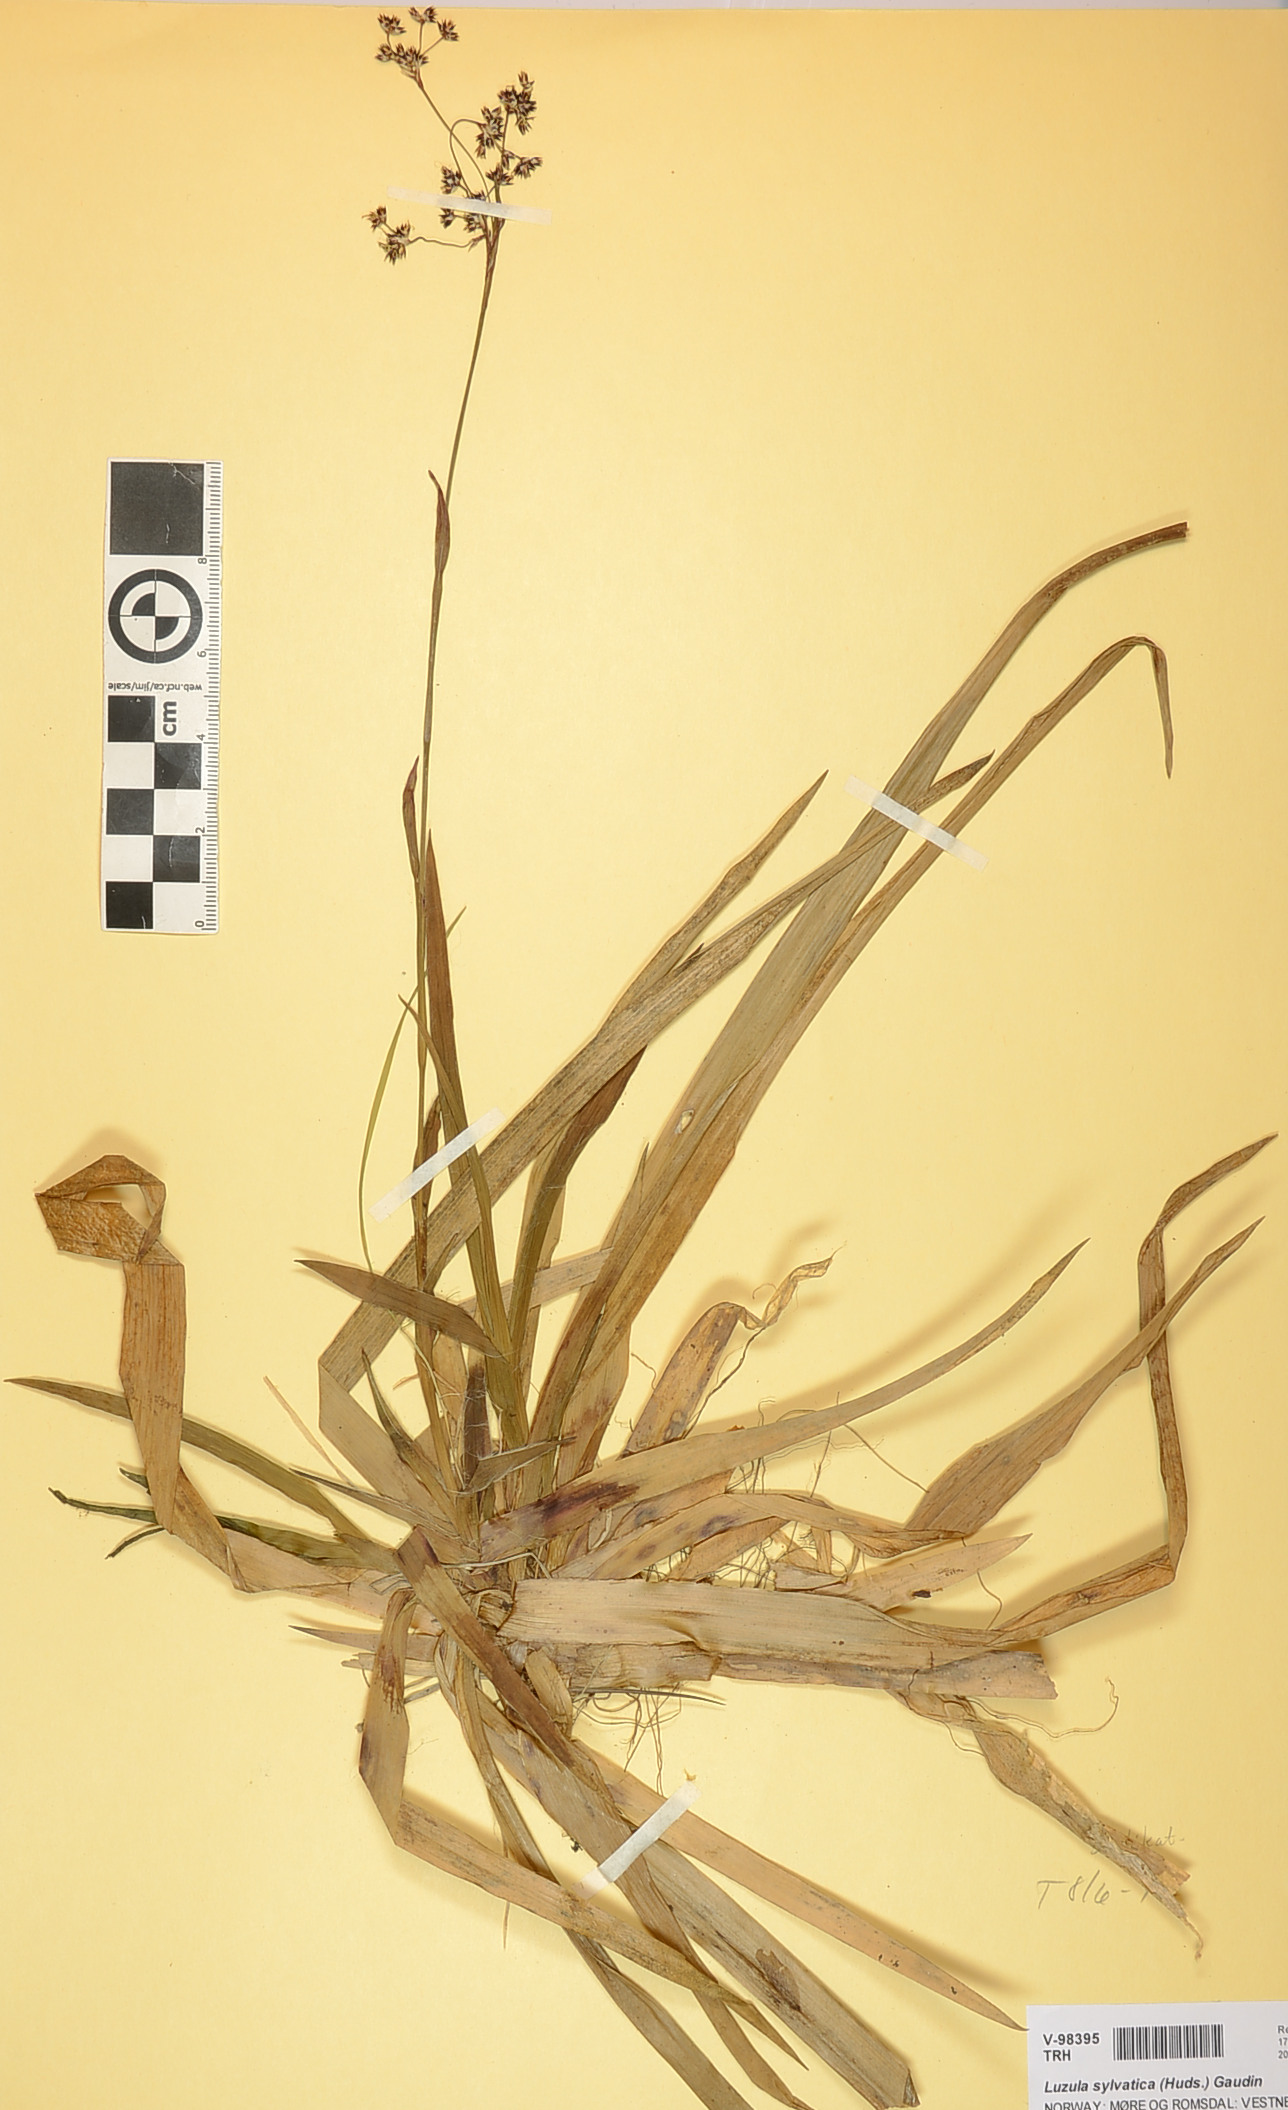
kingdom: Plantae
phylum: Tracheophyta
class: Liliopsida
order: Poales
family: Juncaceae
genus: Luzula
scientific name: Luzula sylvatica
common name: Great wood-rush
